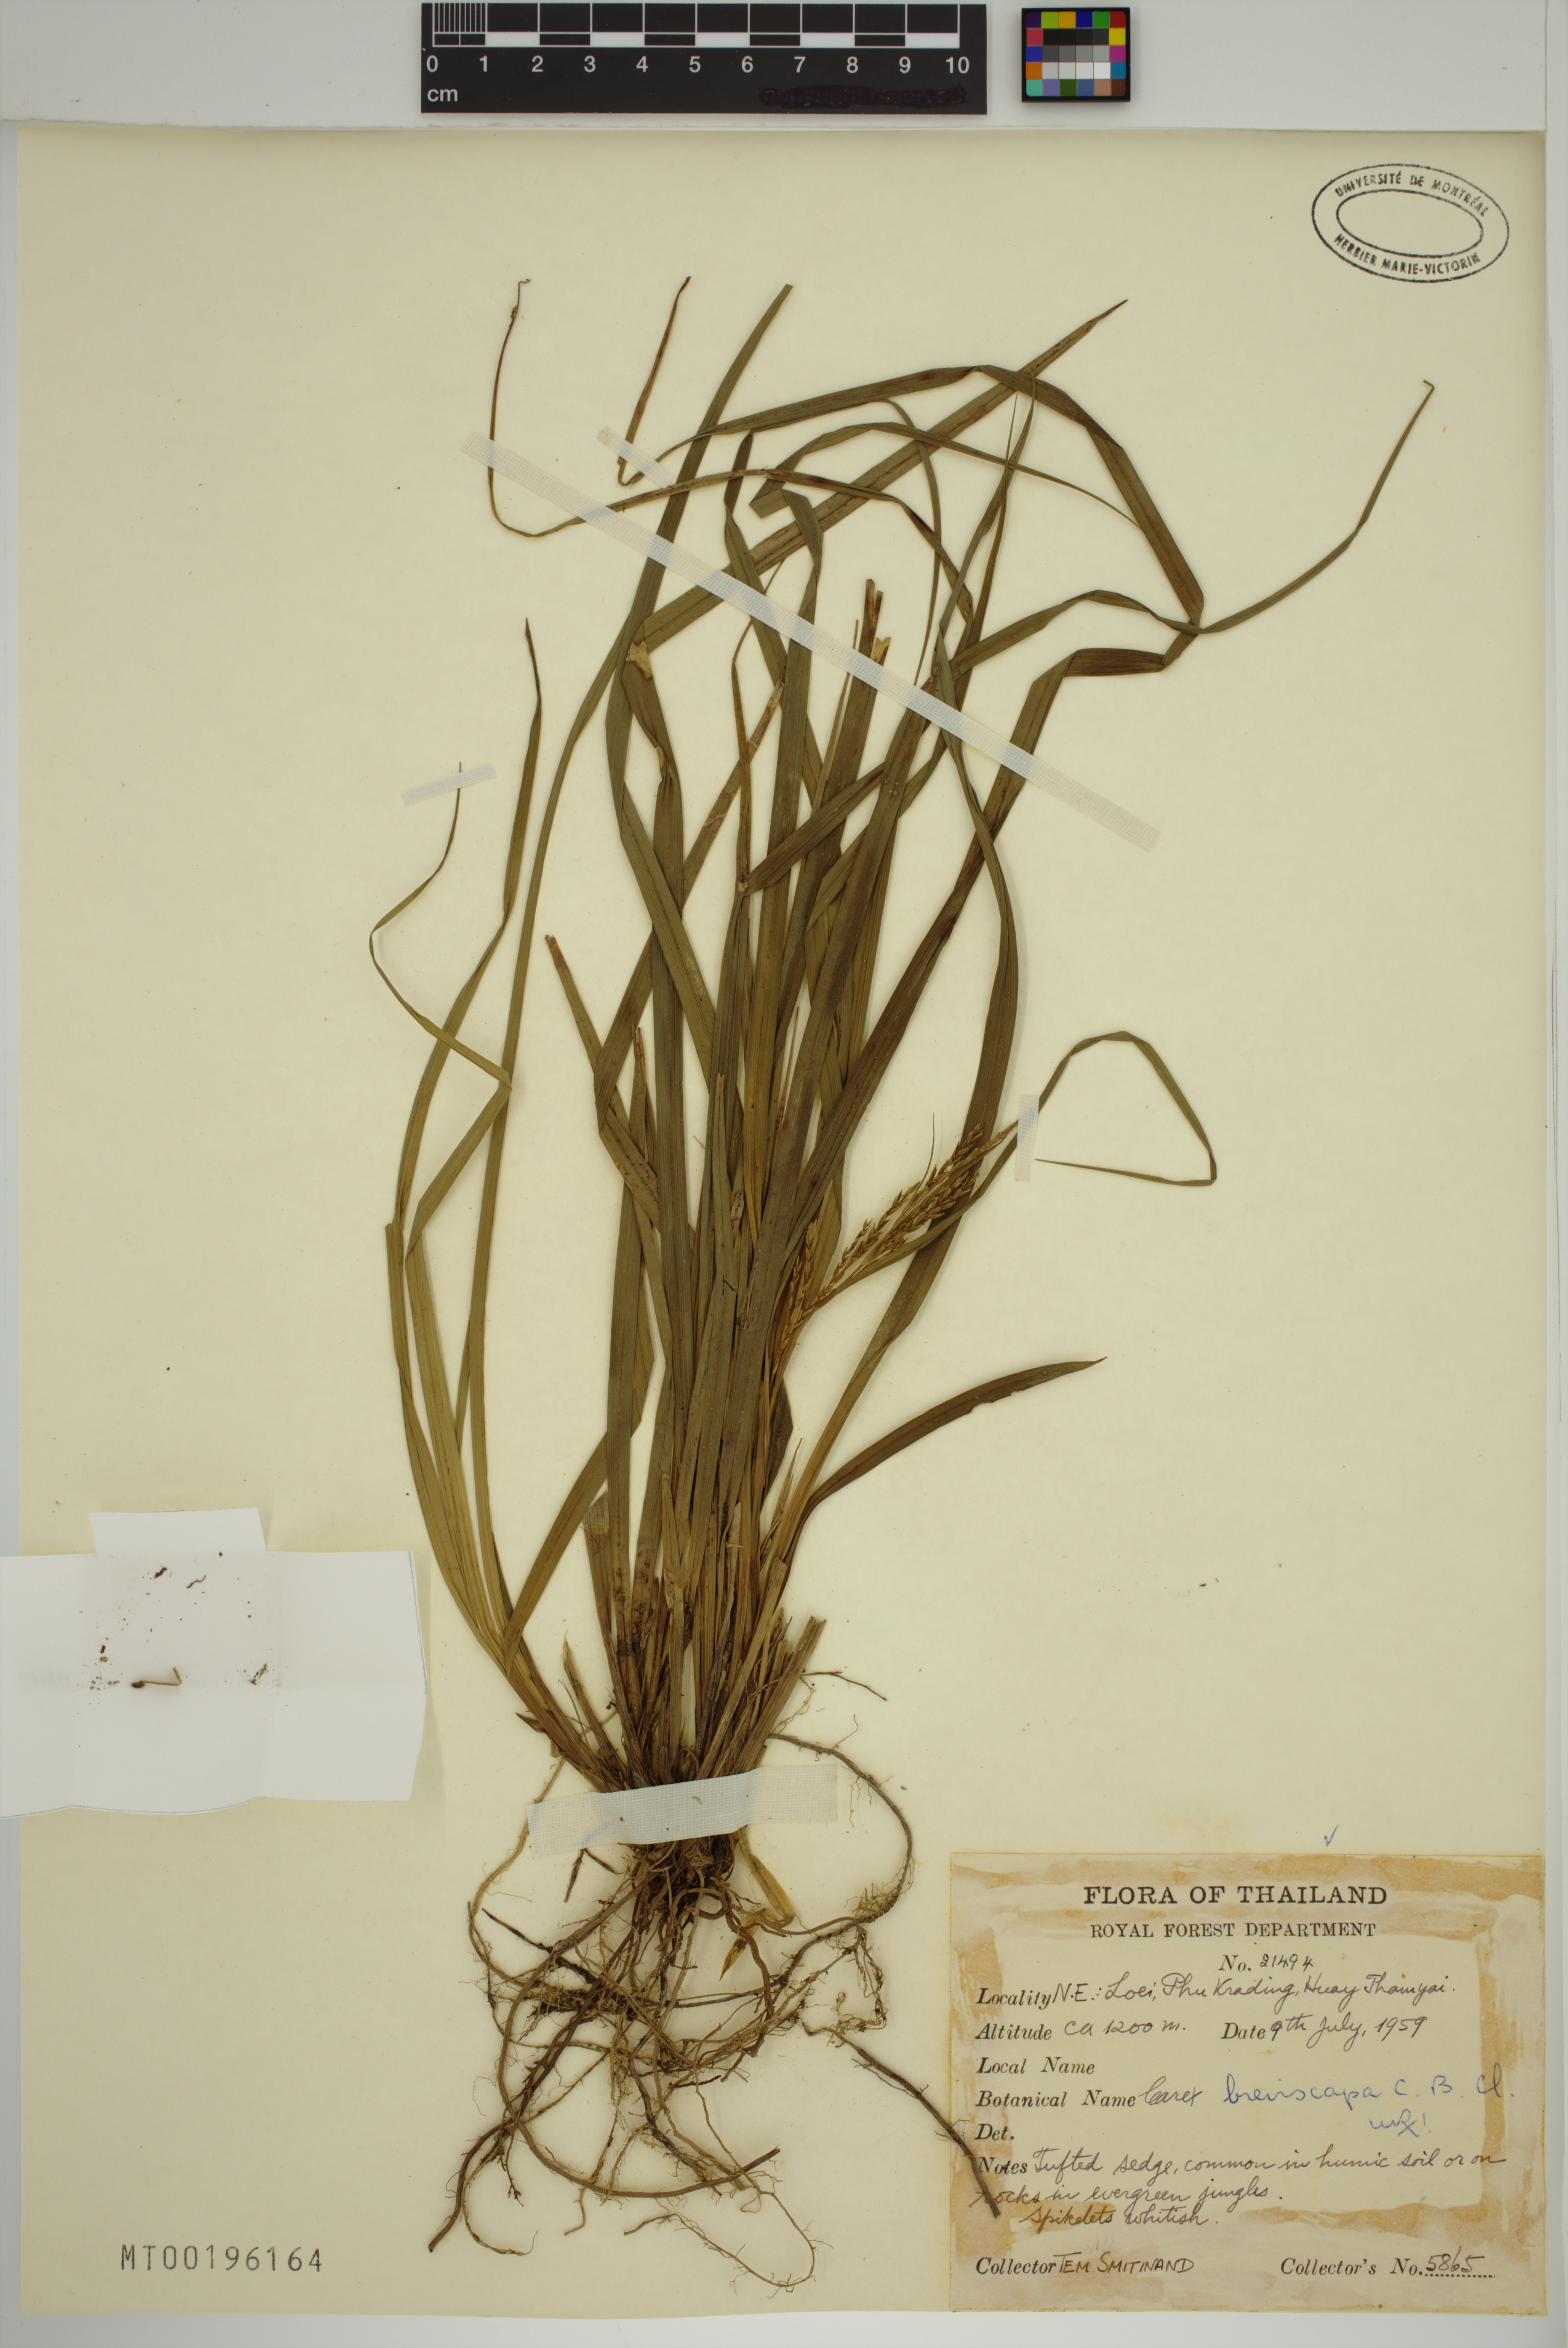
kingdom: Plantae
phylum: Tracheophyta
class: Liliopsida
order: Poales
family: Cyperaceae
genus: Carex
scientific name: Carex breviscapa
